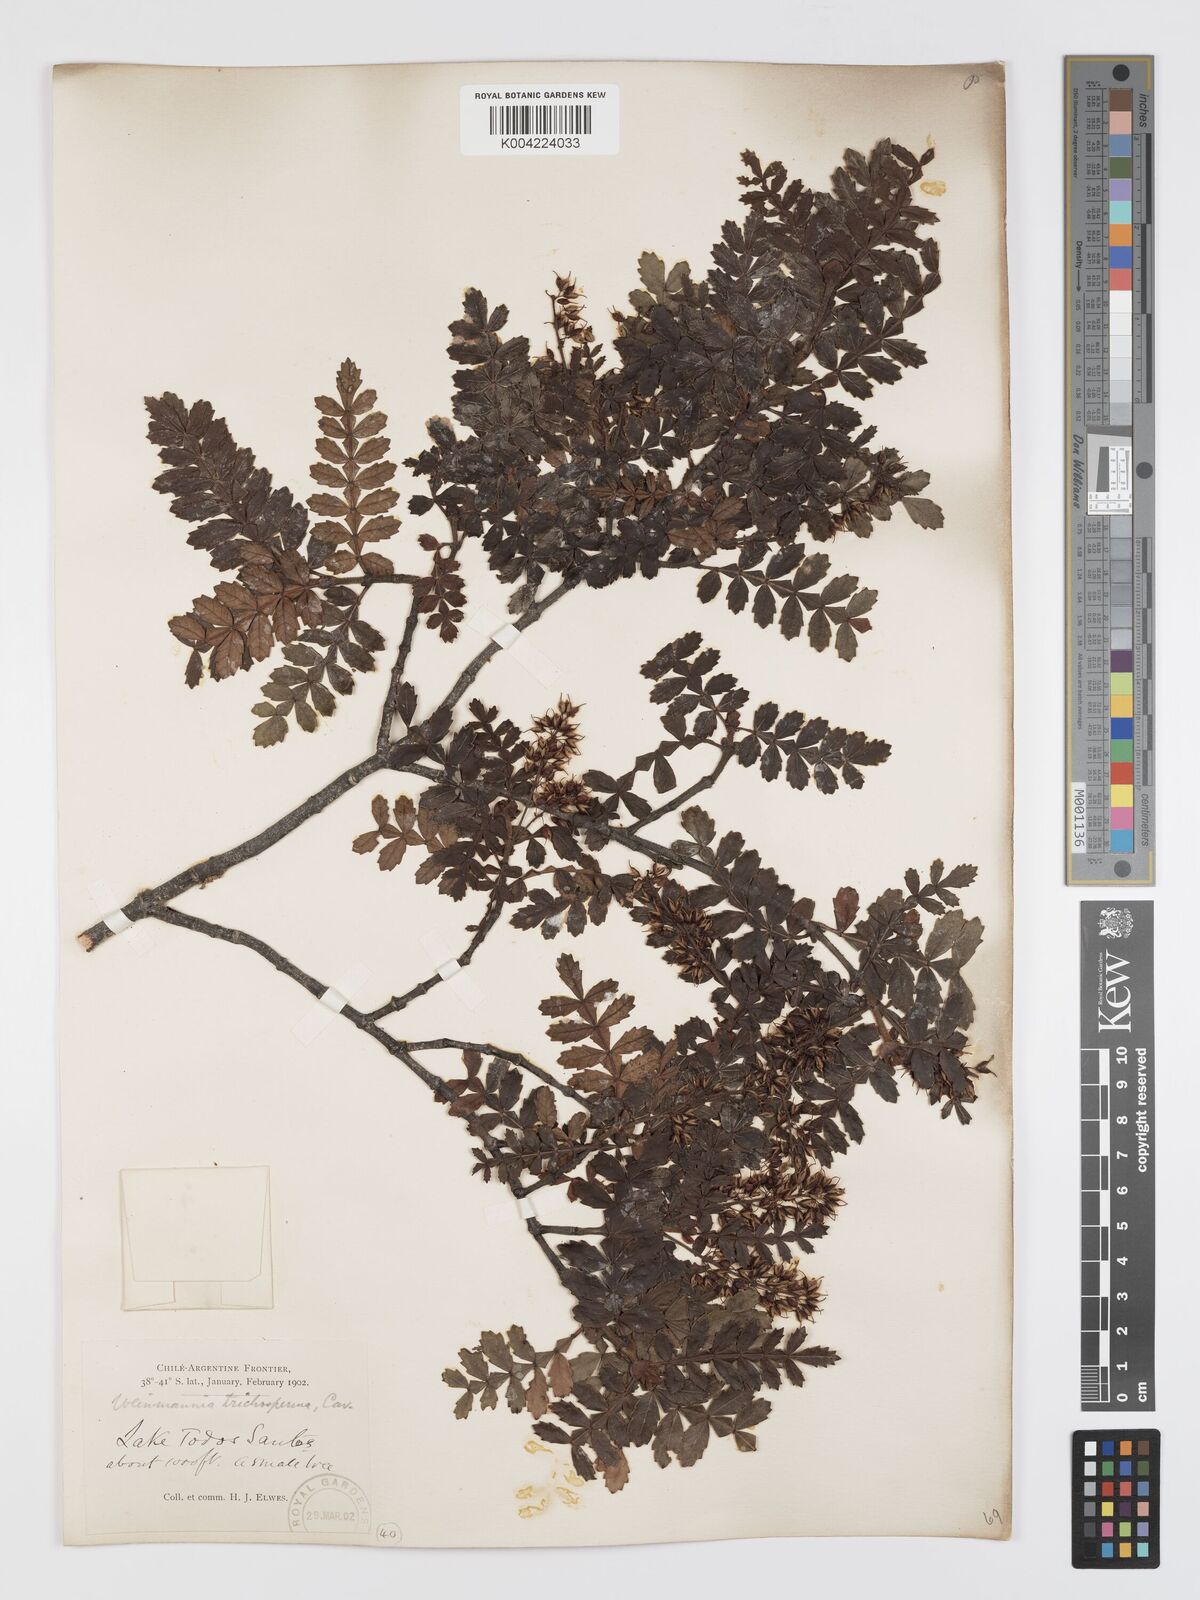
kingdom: Plantae
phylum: Tracheophyta
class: Magnoliopsida
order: Oxalidales
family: Cunoniaceae
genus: Weinmannia
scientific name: Weinmannia trichosperma
